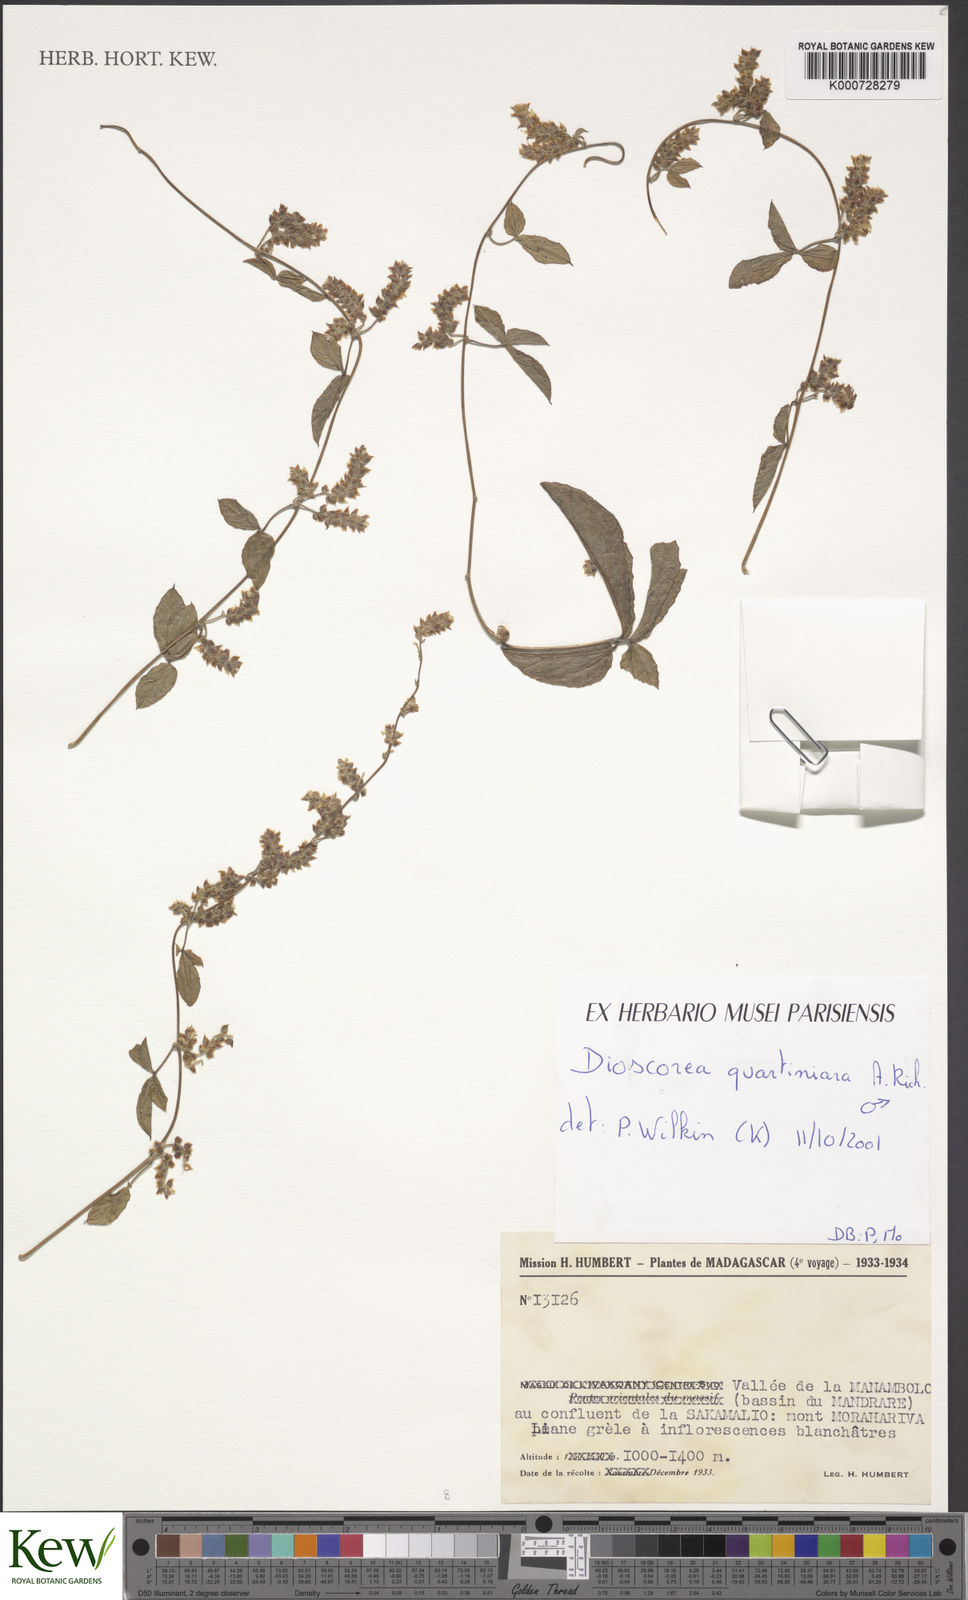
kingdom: Plantae
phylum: Tracheophyta
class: Liliopsida
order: Dioscoreales
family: Dioscoreaceae
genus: Dioscorea
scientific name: Dioscorea quartiniana
